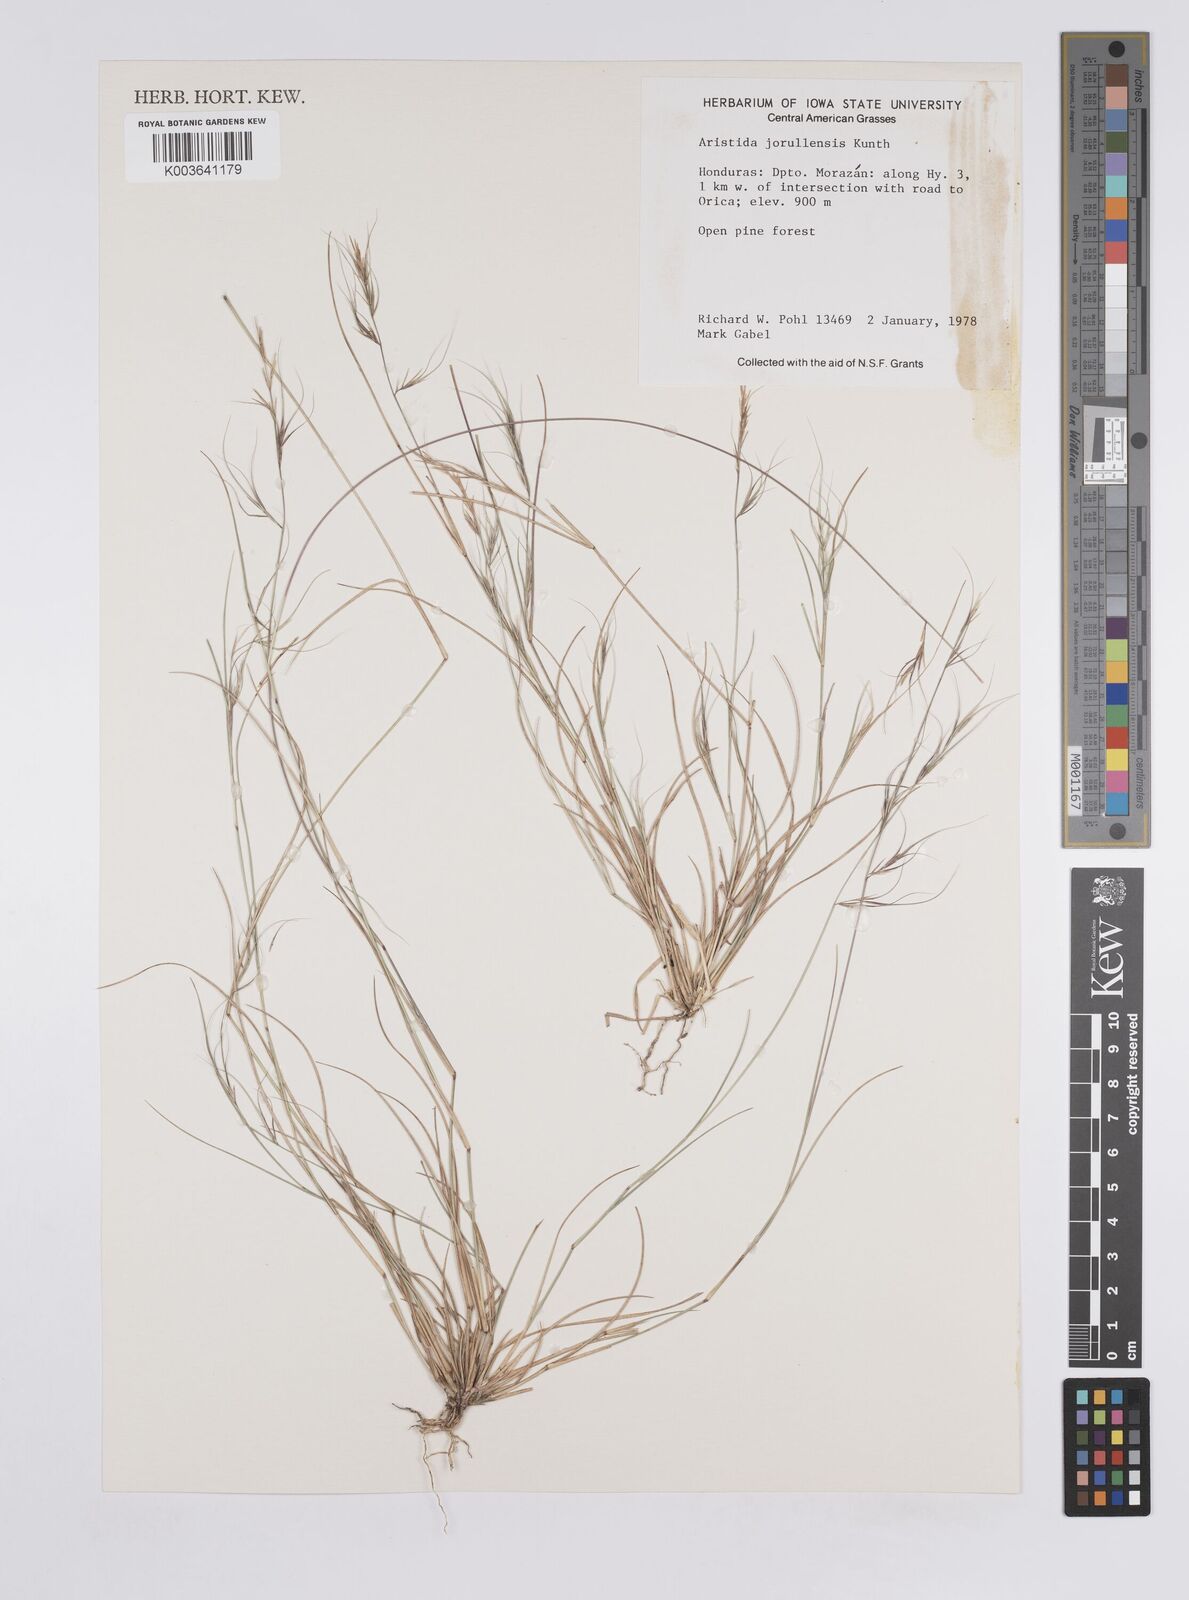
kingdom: Plantae
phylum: Tracheophyta
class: Liliopsida
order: Poales
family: Poaceae
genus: Aristida
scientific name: Aristida jorullensis
